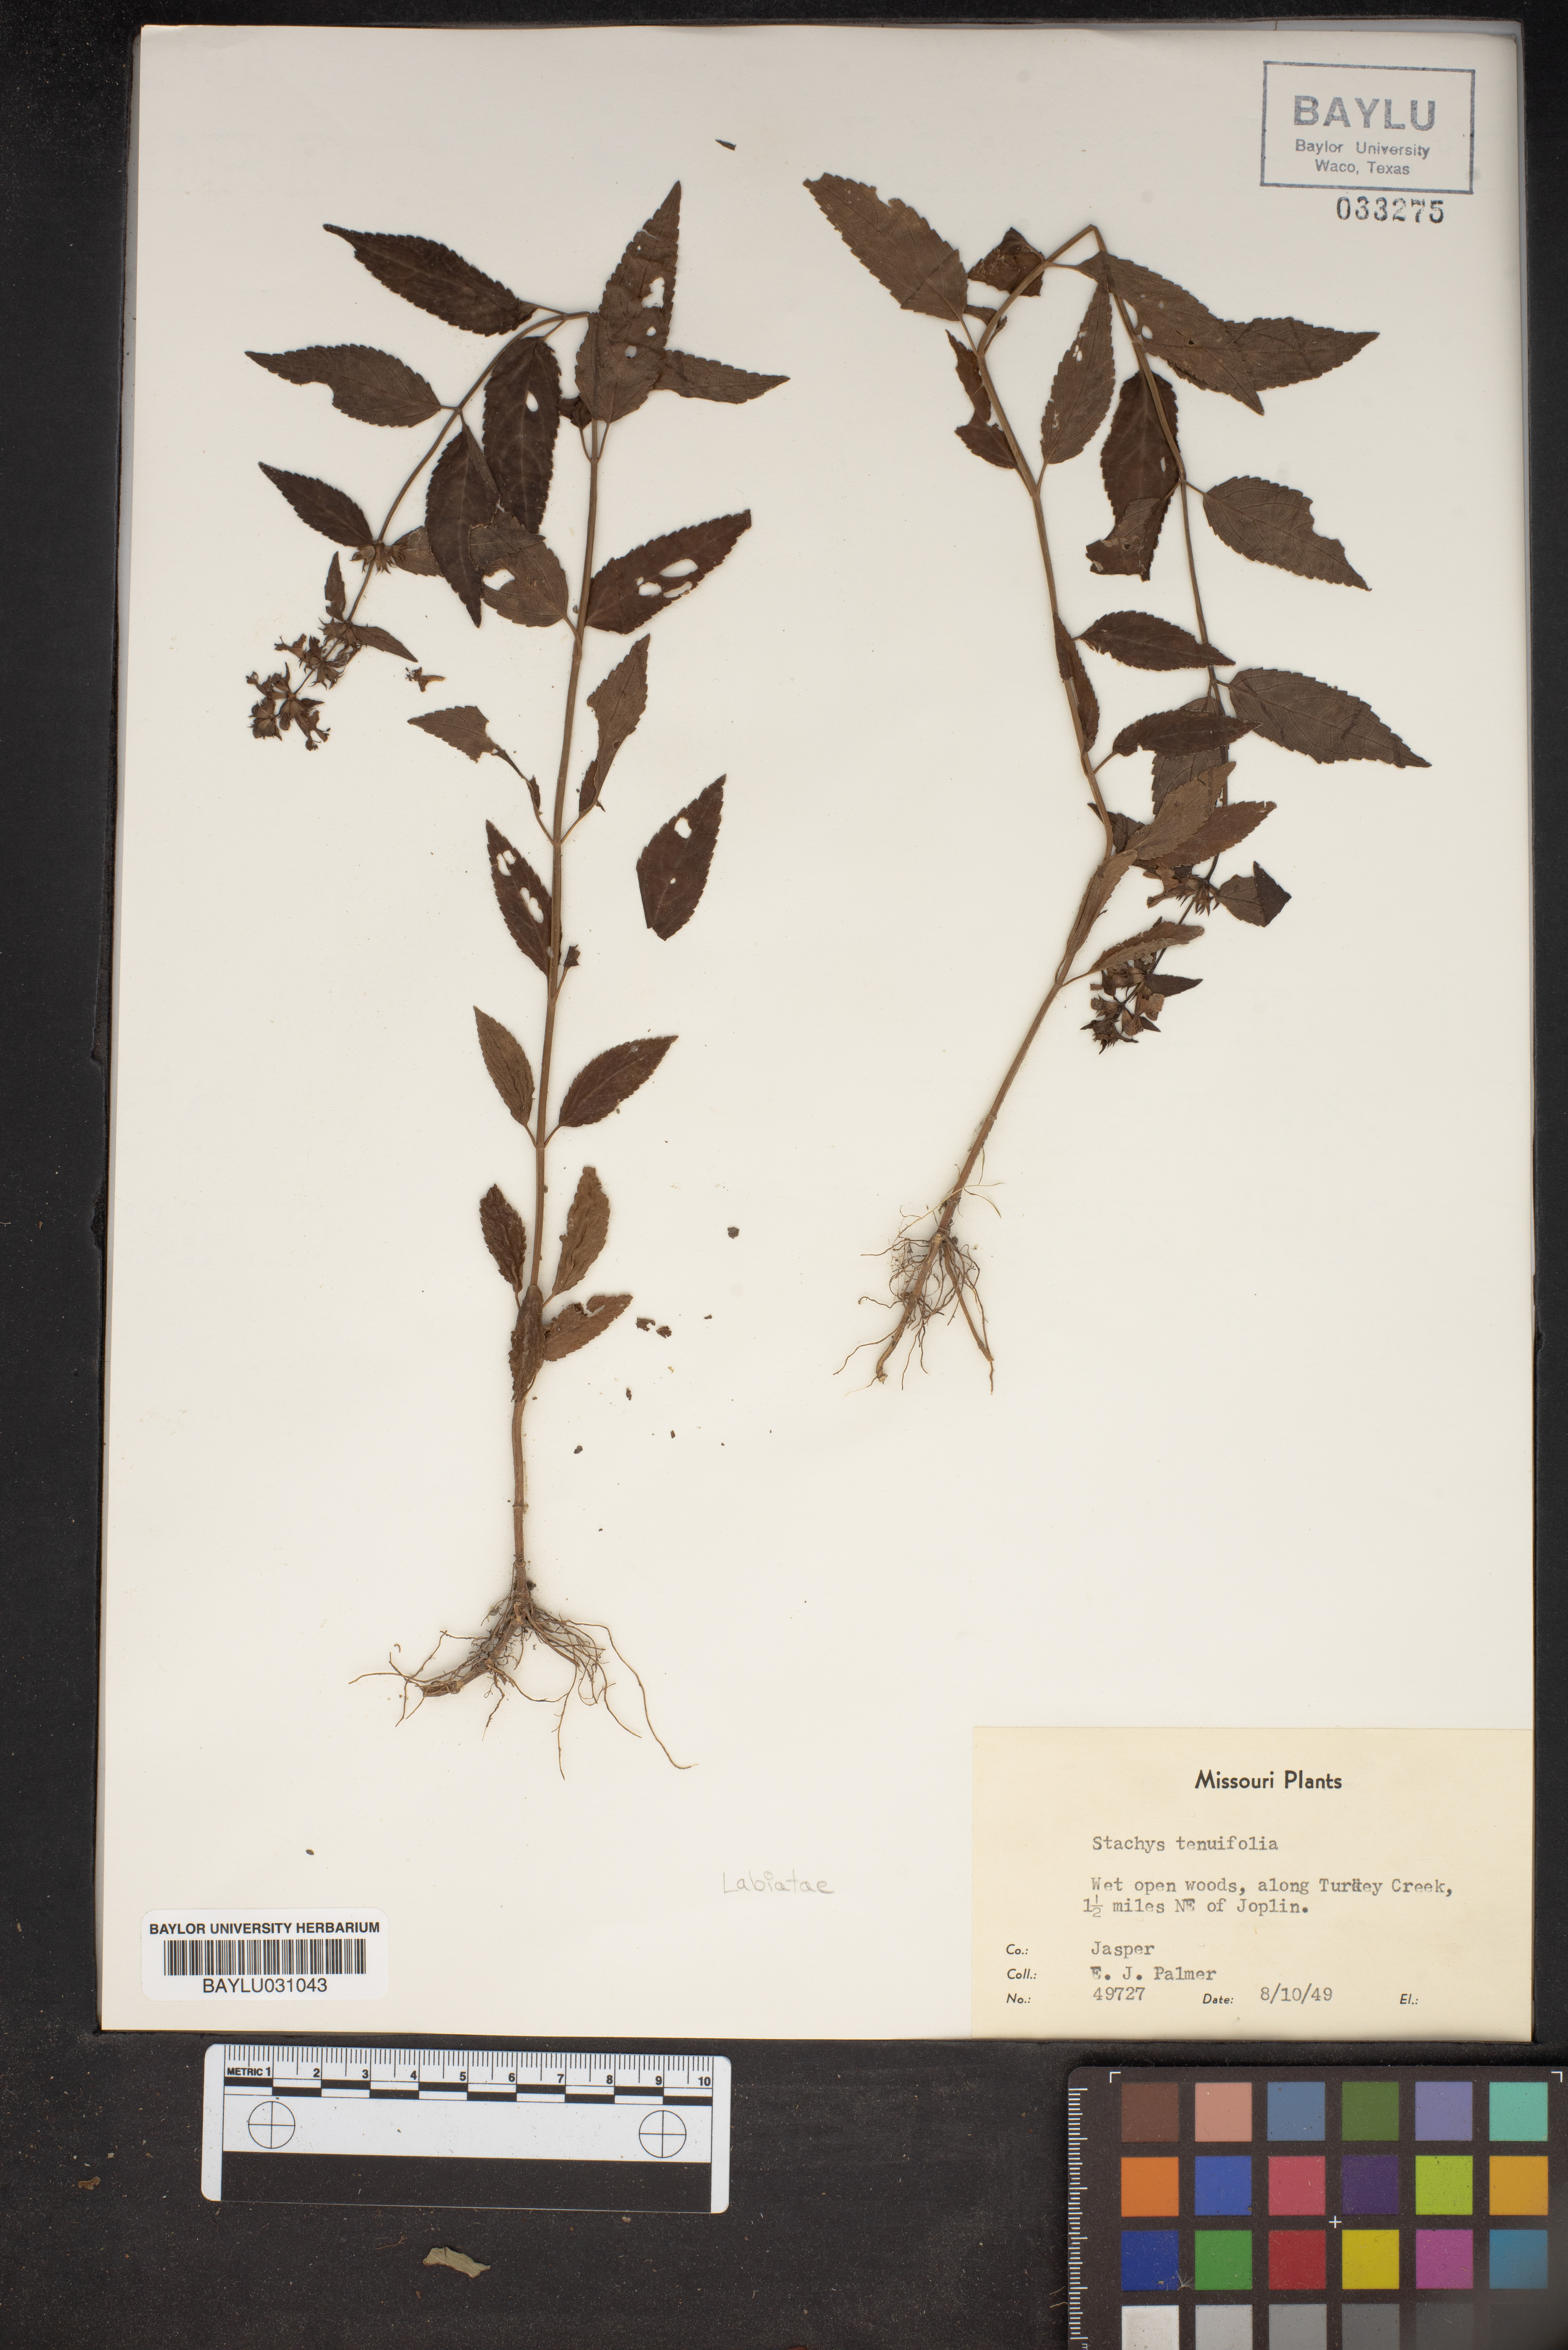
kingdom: Plantae
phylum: Tracheophyta
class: Magnoliopsida
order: Lamiales
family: Lamiaceae
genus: Stachys
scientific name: Stachys tenuifolia
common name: Smooth hedge-nettle
